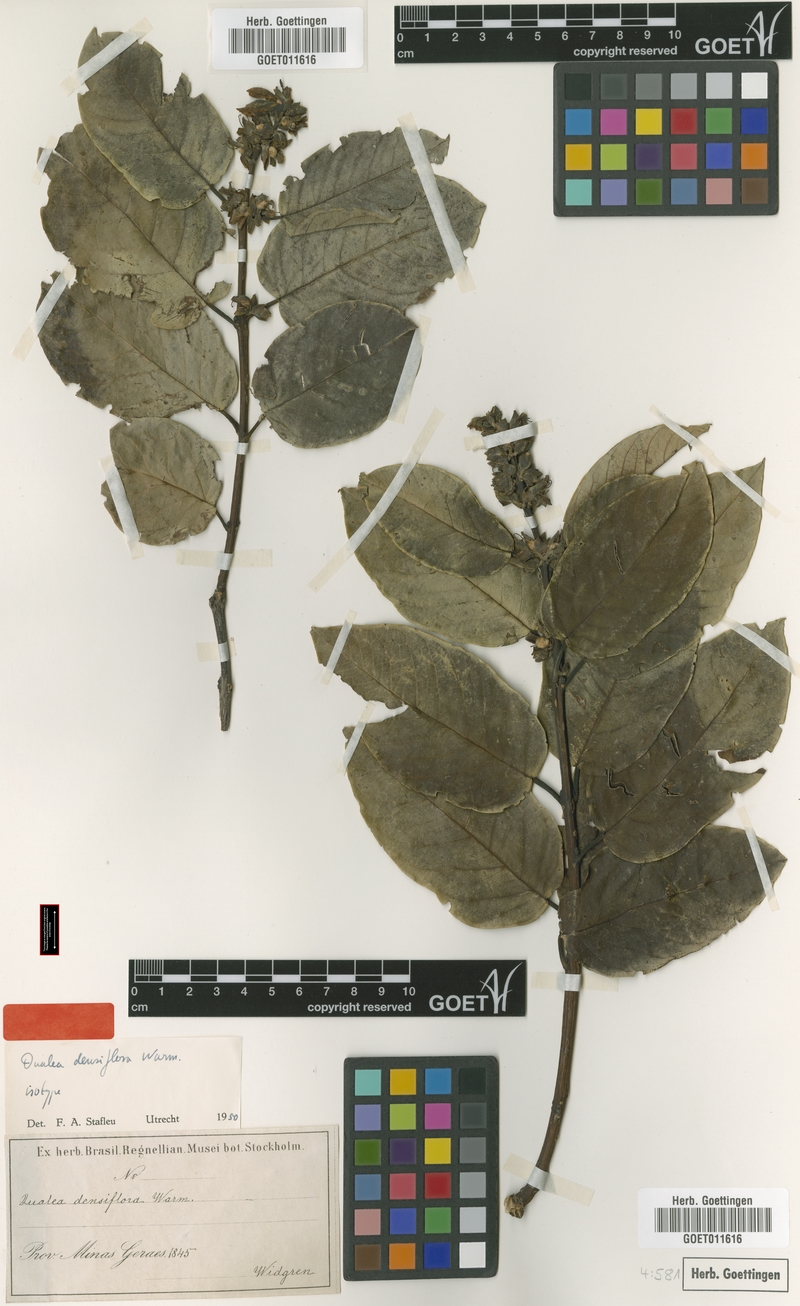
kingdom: Plantae
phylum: Tracheophyta
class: Magnoliopsida
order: Myrtales
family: Vochysiaceae
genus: Qualea
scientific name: Qualea densiflora
